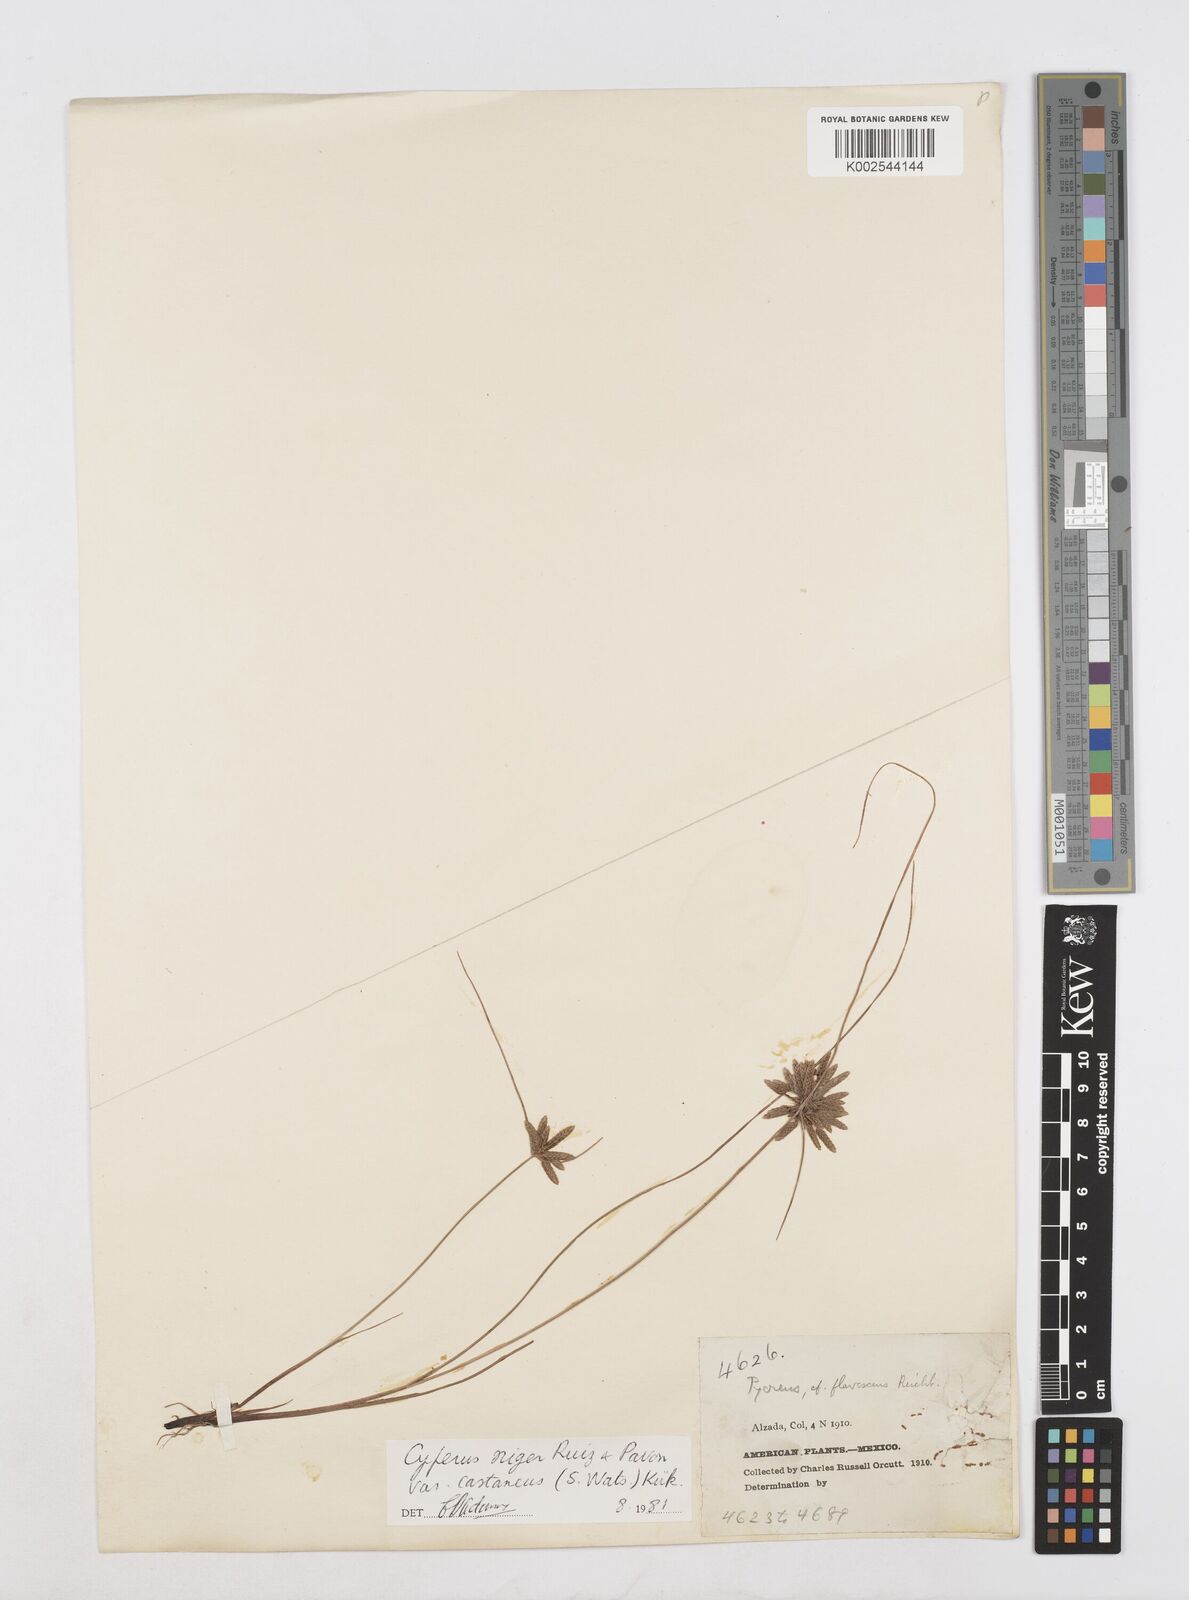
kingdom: Plantae
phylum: Tracheophyta
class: Liliopsida
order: Poales
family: Cyperaceae
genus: Cyperus
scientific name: Cyperus melanostachyus
